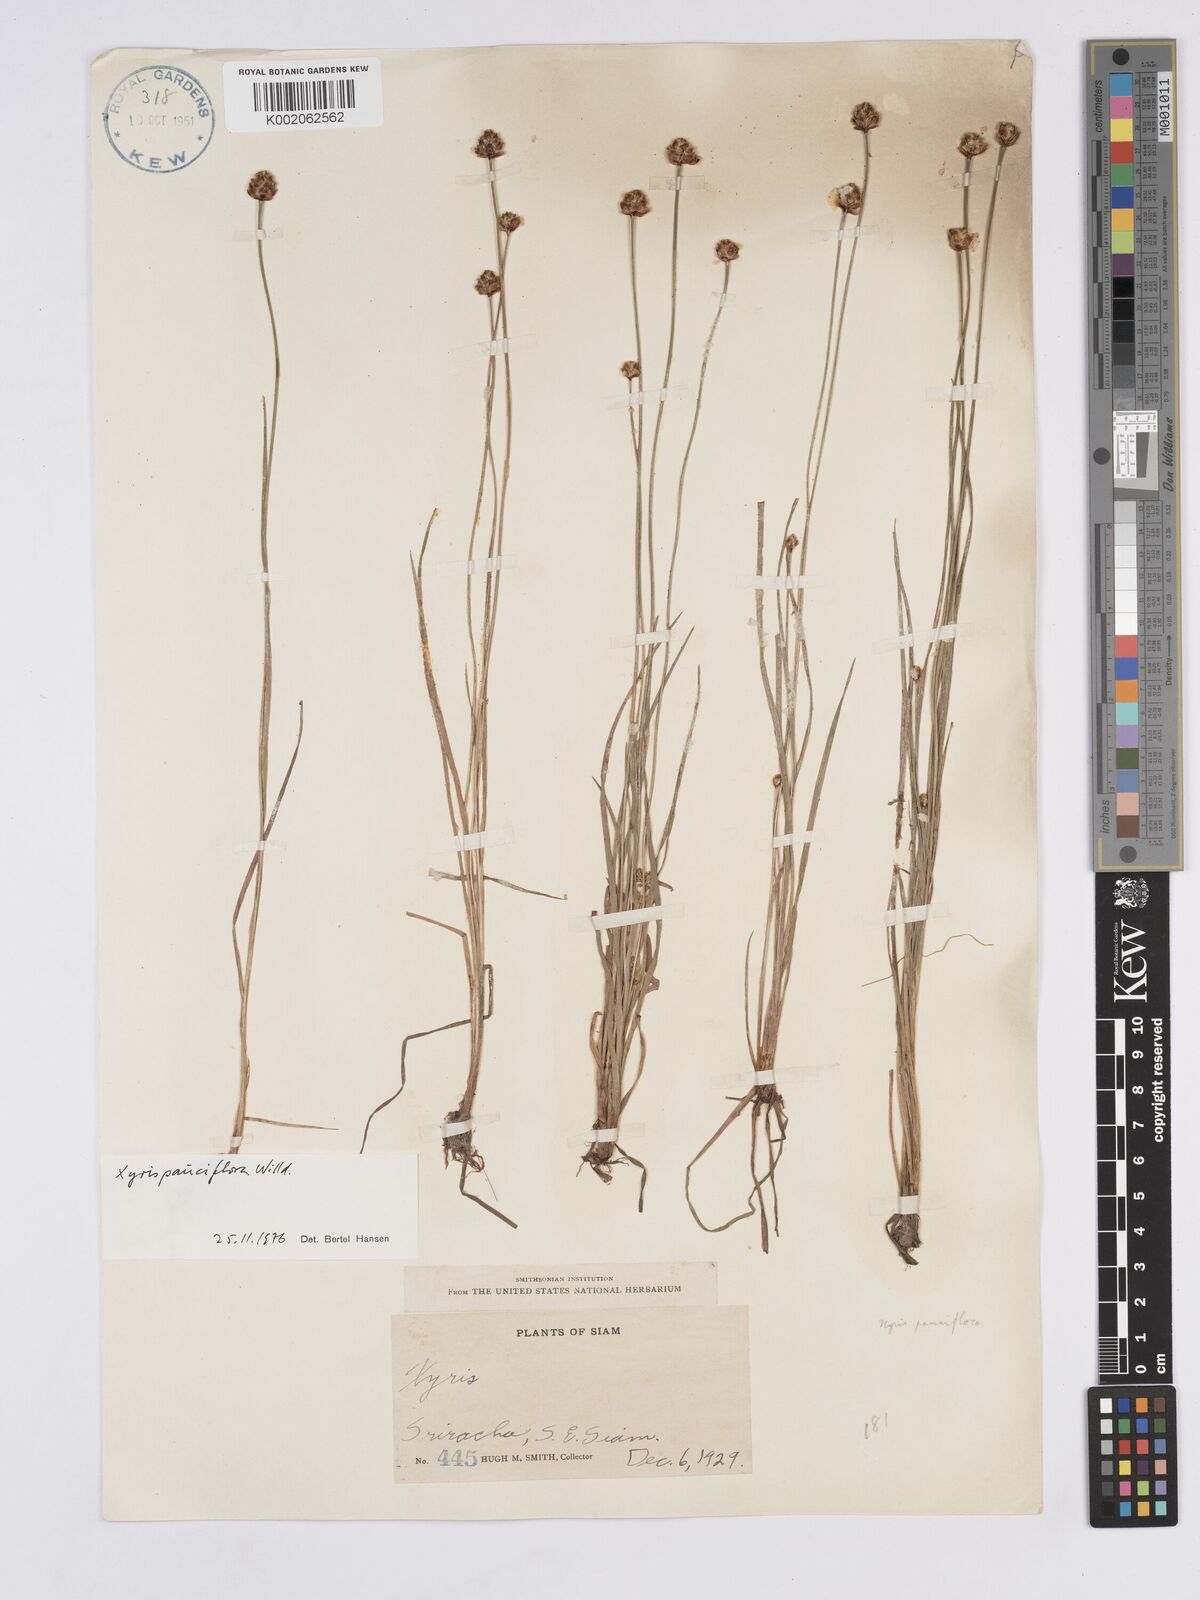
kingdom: Plantae
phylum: Tracheophyta
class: Liliopsida
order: Poales
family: Xyridaceae
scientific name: Xyridaceae
